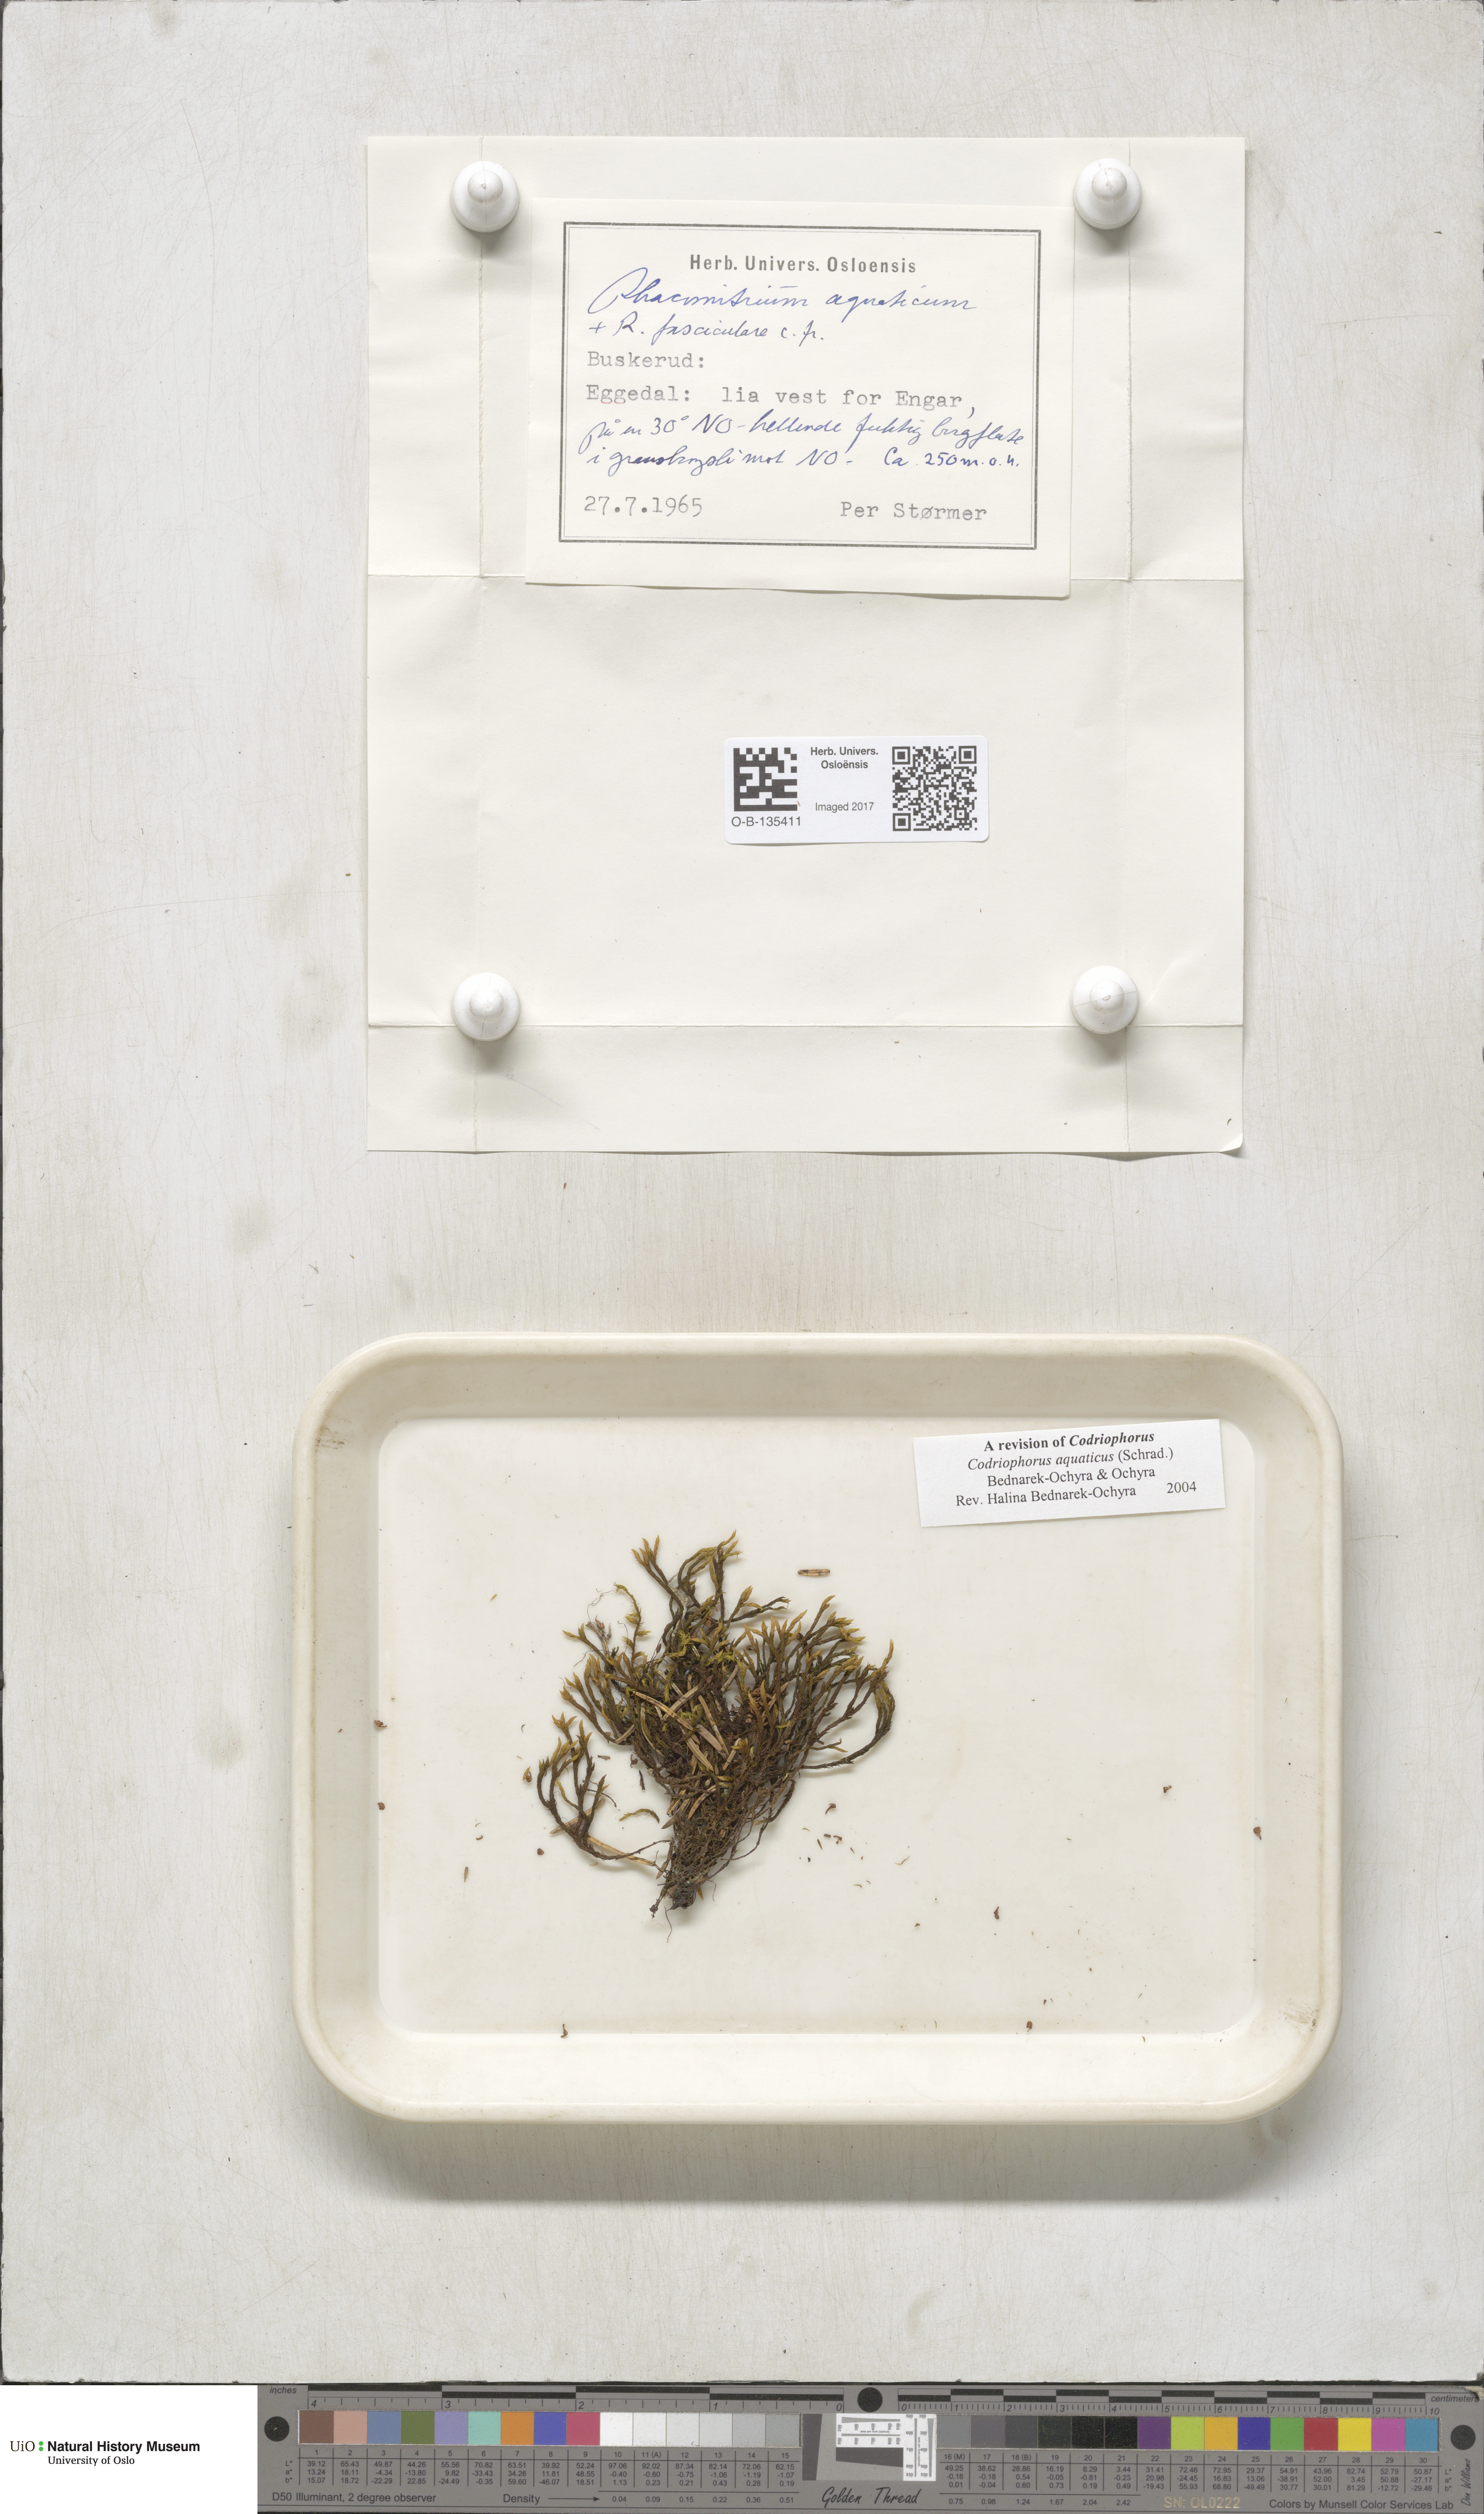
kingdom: Plantae
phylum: Bryophyta
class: Bryopsida
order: Grimmiales
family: Grimmiaceae
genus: Codriophorus
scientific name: Codriophorus aquaticus
